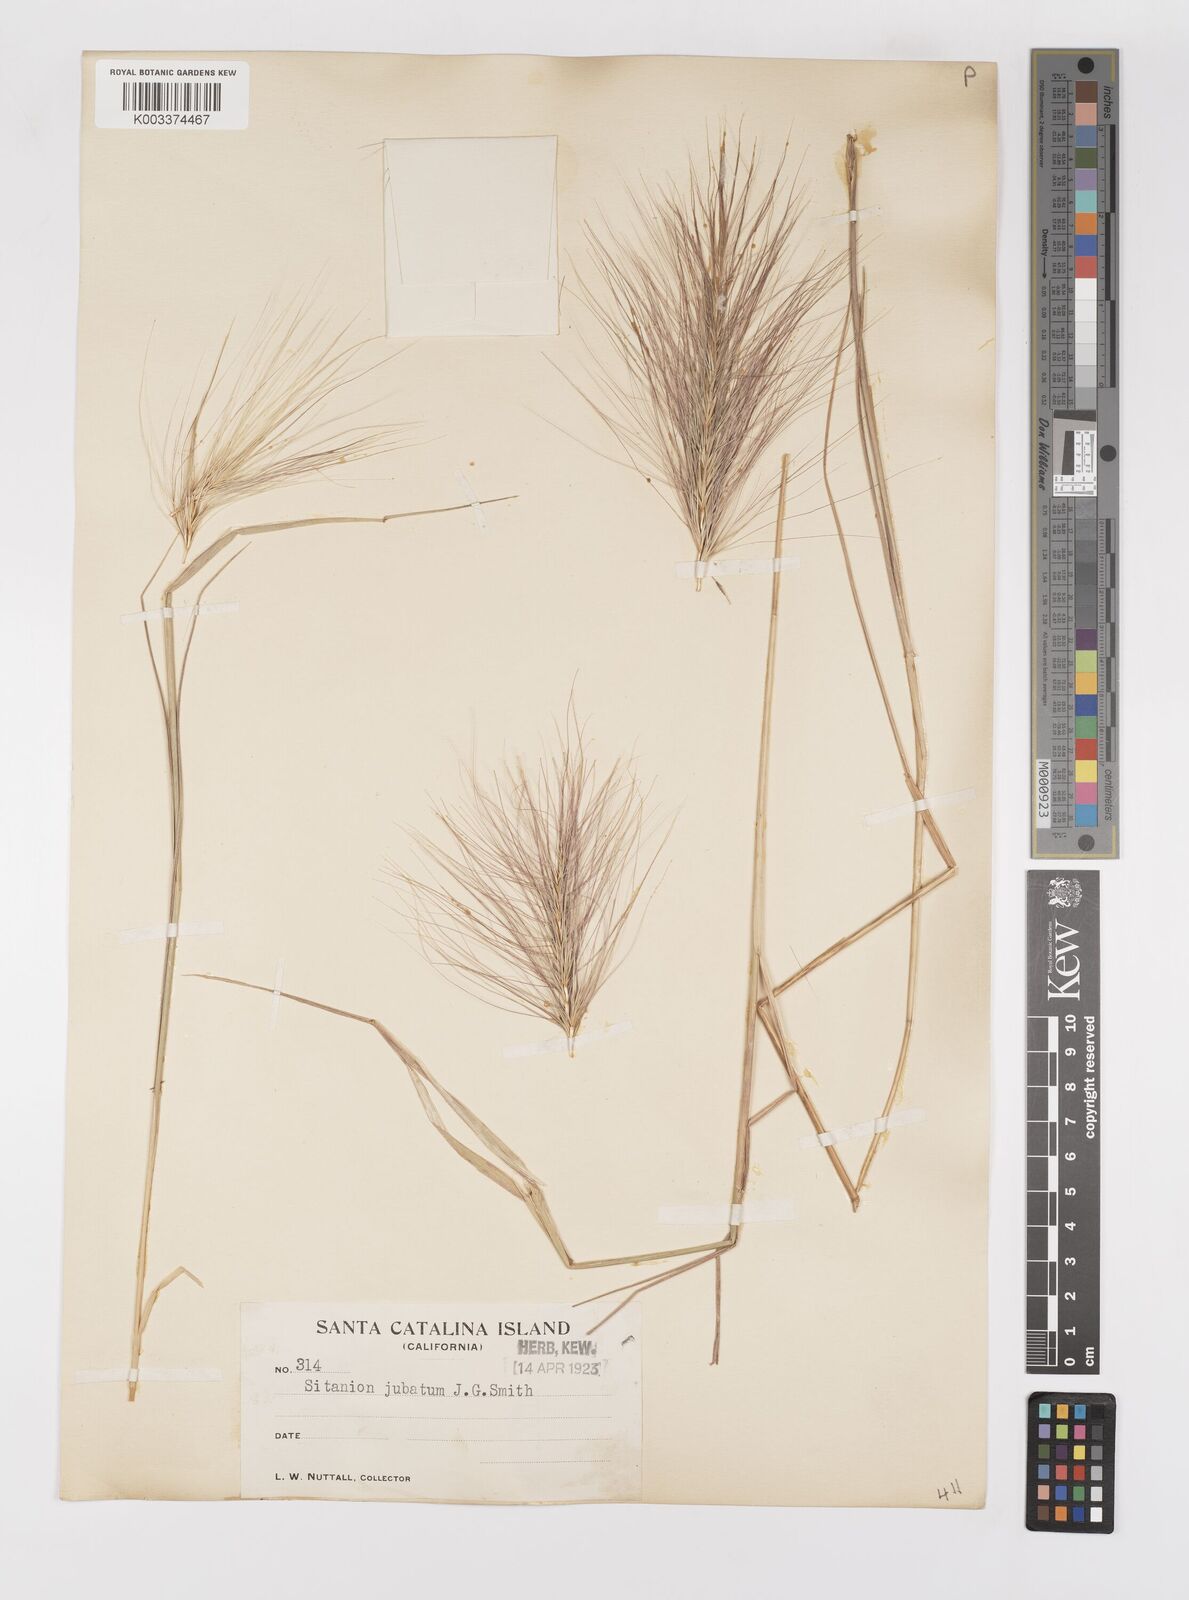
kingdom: Plantae
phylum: Tracheophyta
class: Liliopsida
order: Poales
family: Poaceae
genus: Elymus
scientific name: Elymus multisetus
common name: Big squirreltail
